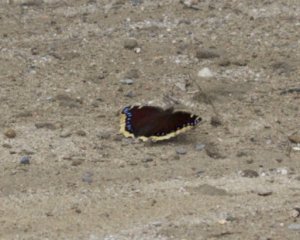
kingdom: Animalia
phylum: Arthropoda
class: Insecta
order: Lepidoptera
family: Nymphalidae
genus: Nymphalis
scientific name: Nymphalis antiopa
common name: Mourning Cloak
